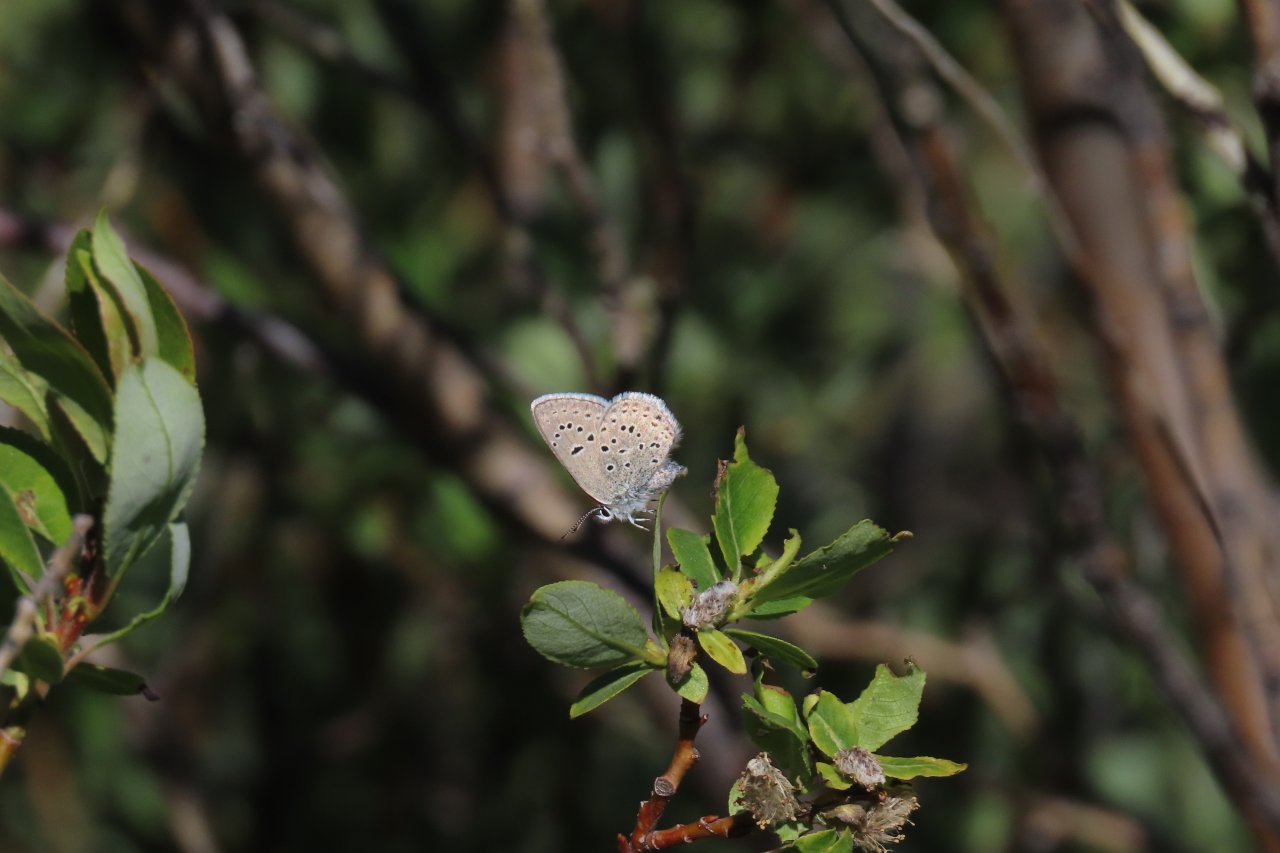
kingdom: Animalia
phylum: Arthropoda
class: Insecta
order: Lepidoptera
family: Lycaenidae
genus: Plebejus
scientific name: Plebejus saepiolus
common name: Greenish Blue
